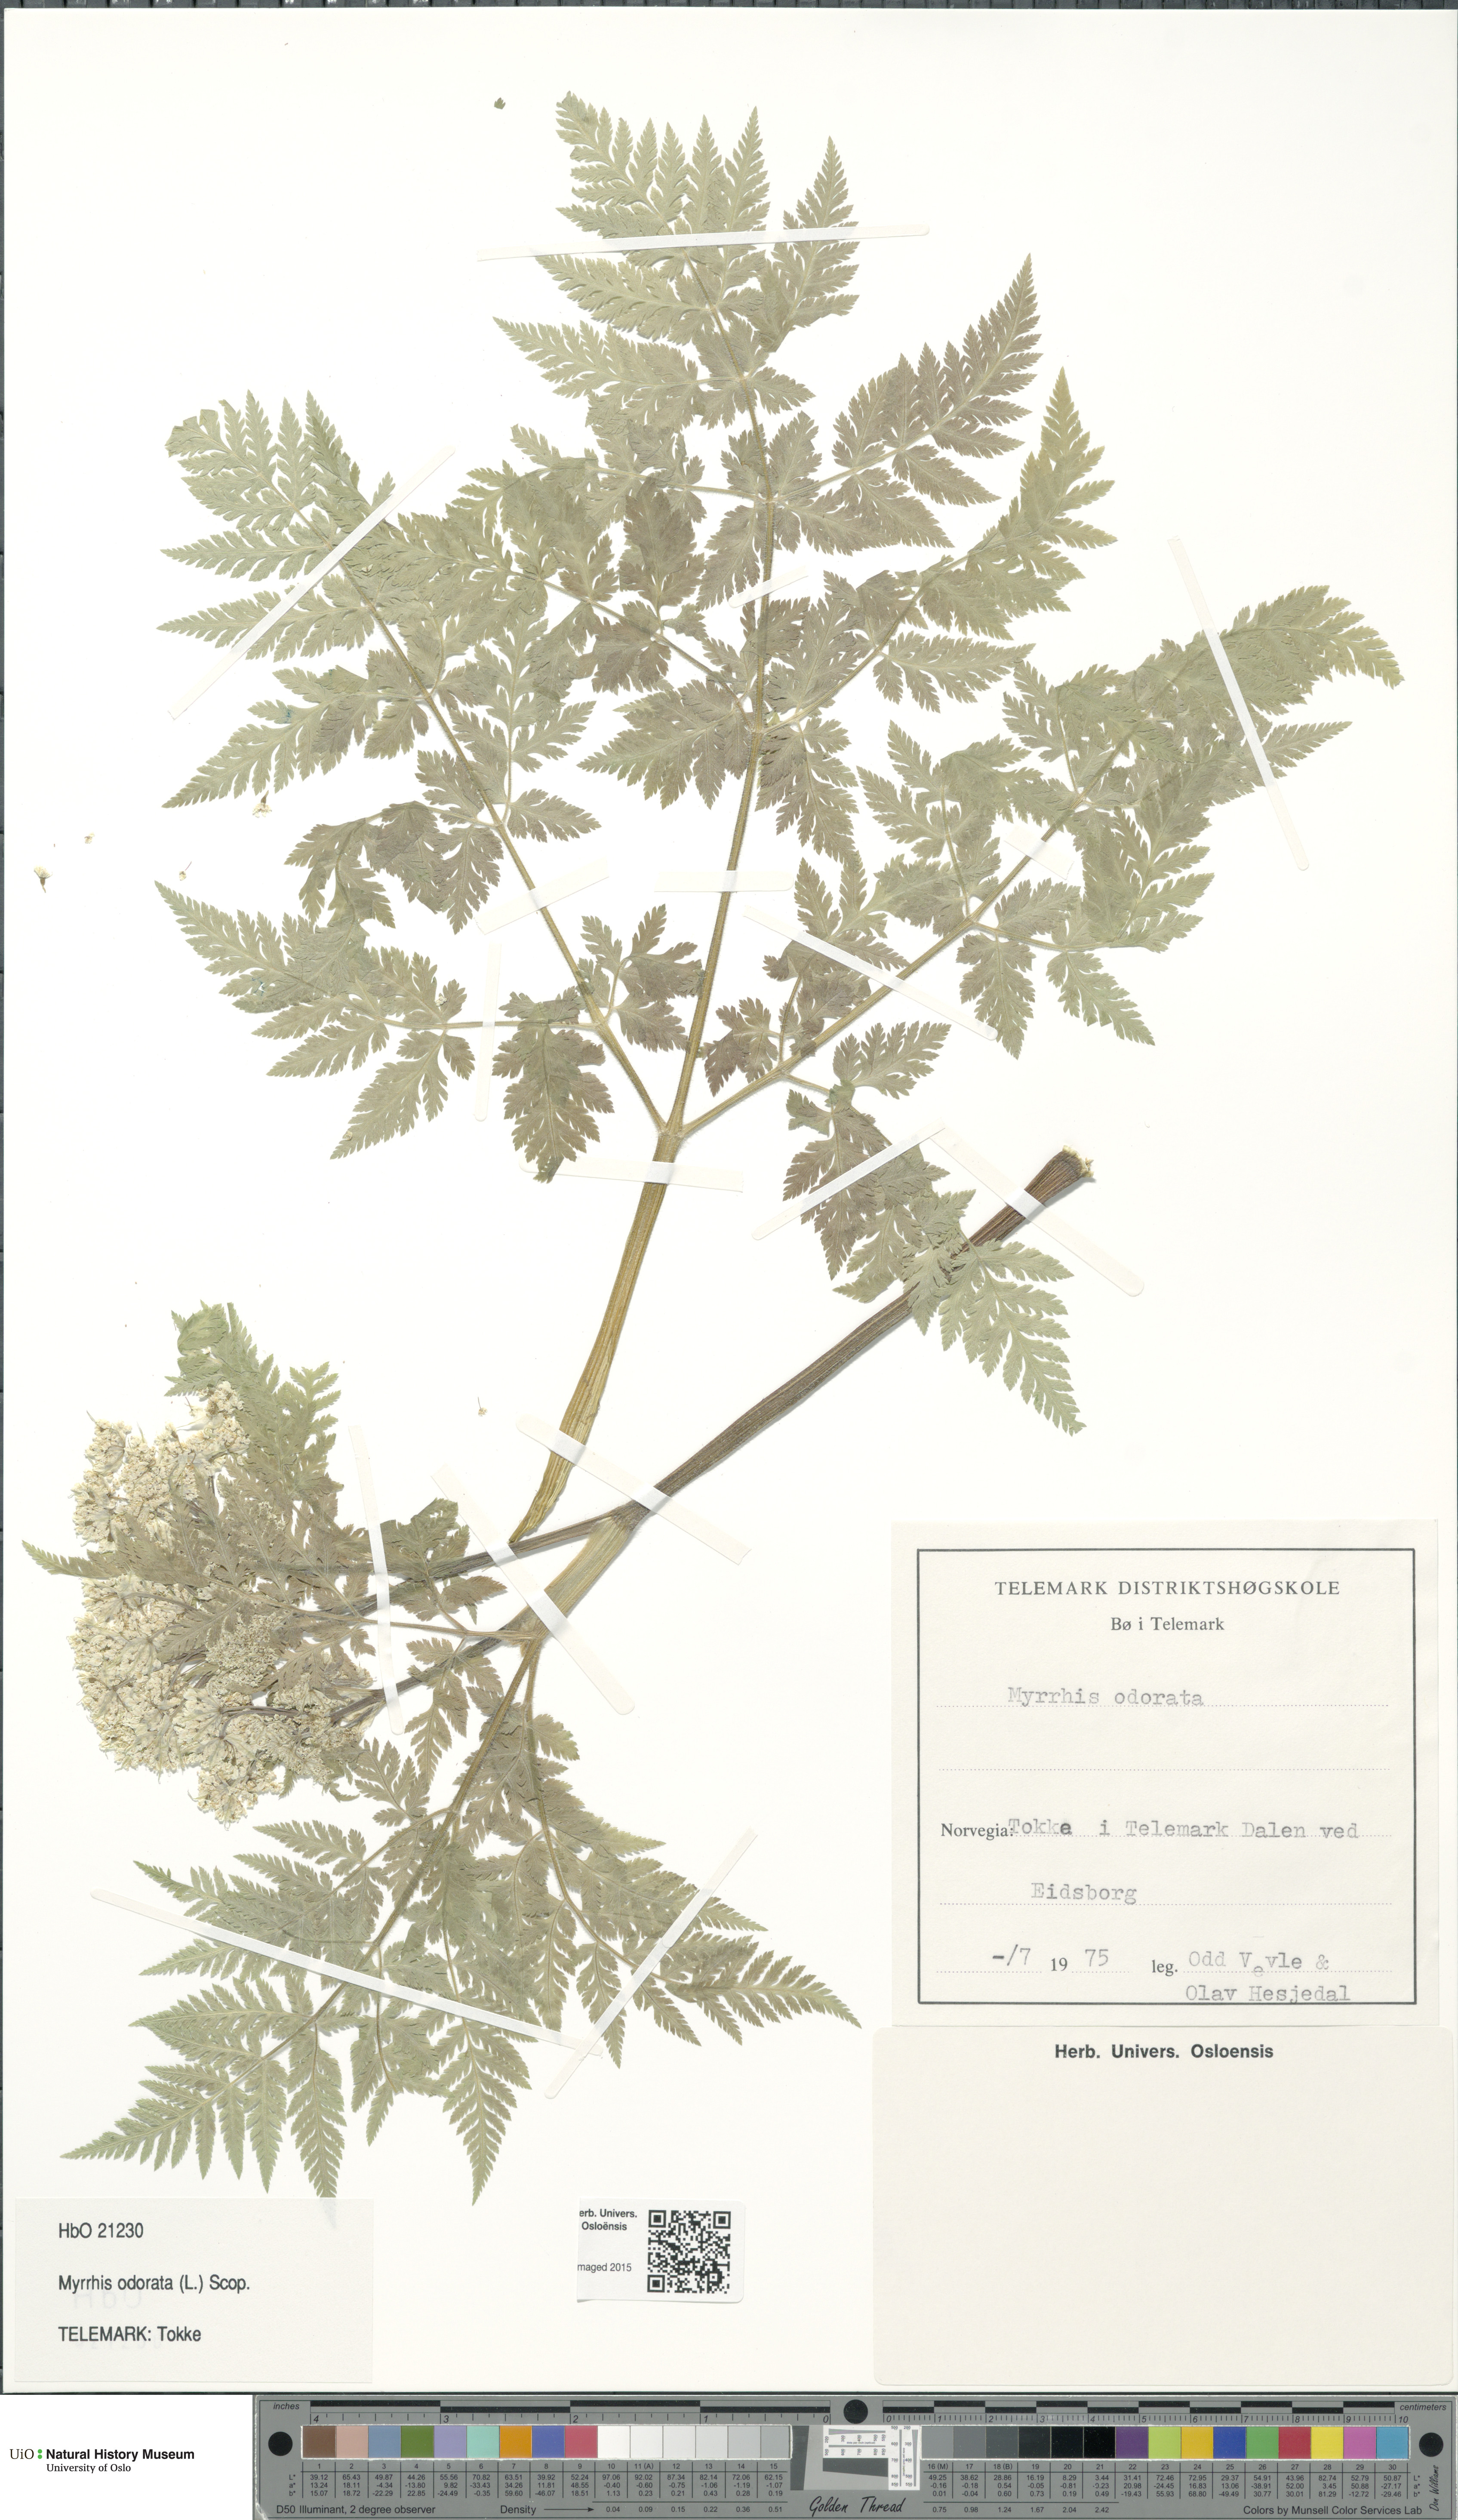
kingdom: Plantae
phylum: Tracheophyta
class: Magnoliopsida
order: Apiales
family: Apiaceae
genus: Myrrhis
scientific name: Myrrhis odorata
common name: Sweet cicely
